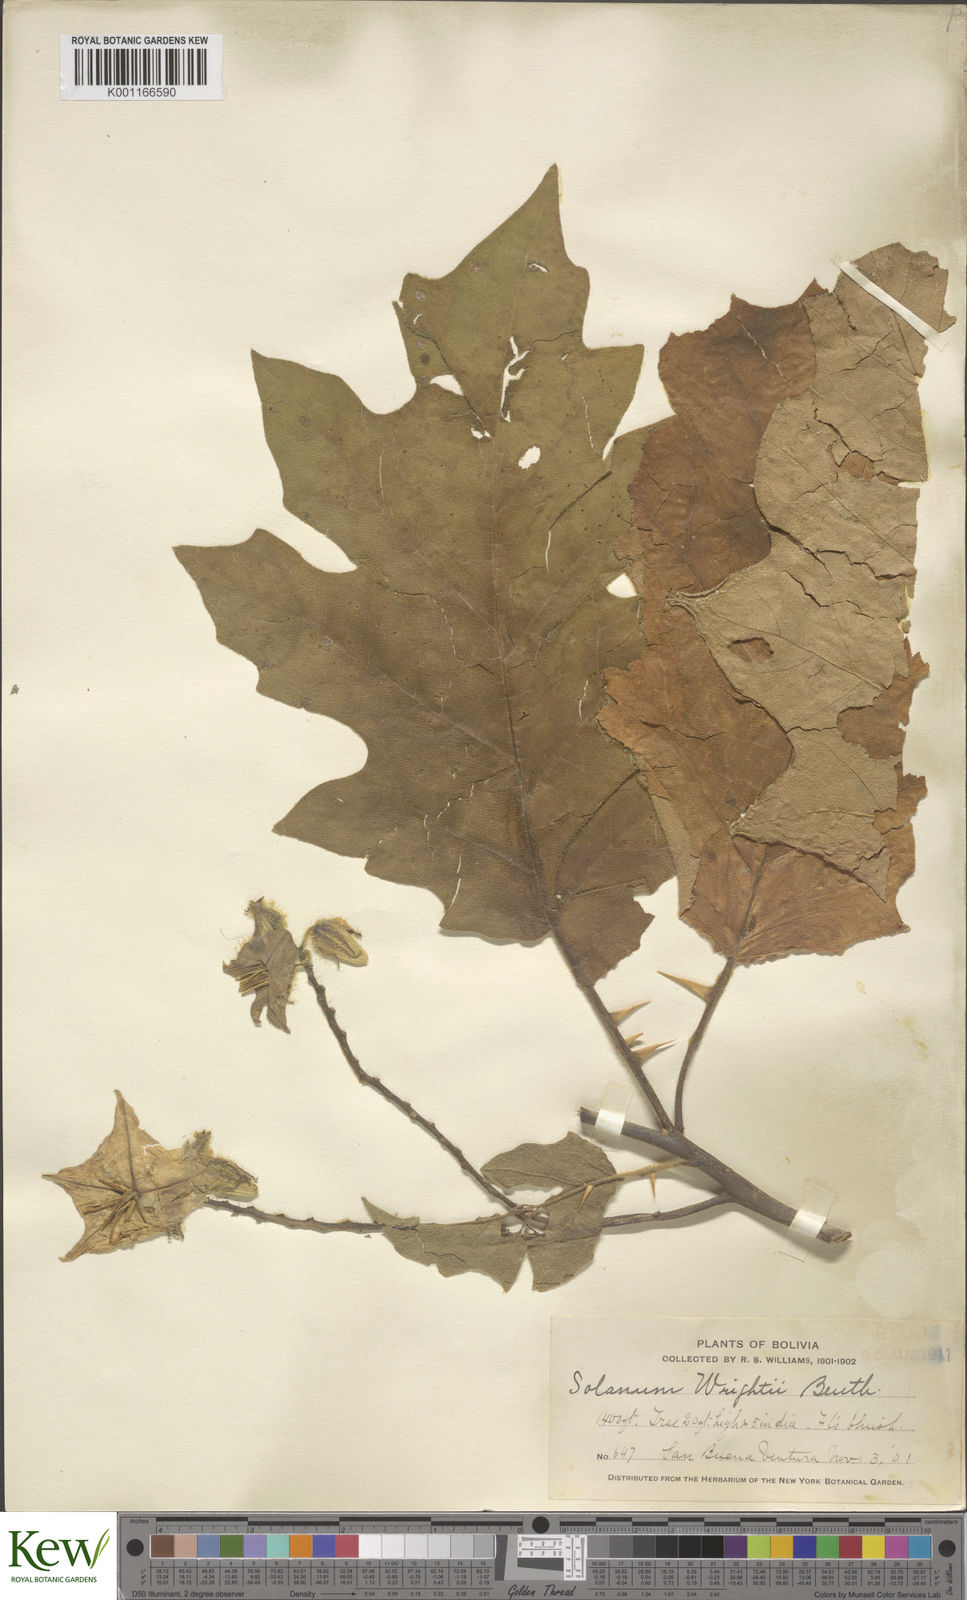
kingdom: Plantae
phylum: Tracheophyta
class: Magnoliopsida
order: Solanales
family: Solanaceae
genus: Solanum
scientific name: Solanum wrightii
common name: Brazilian potato-tree
